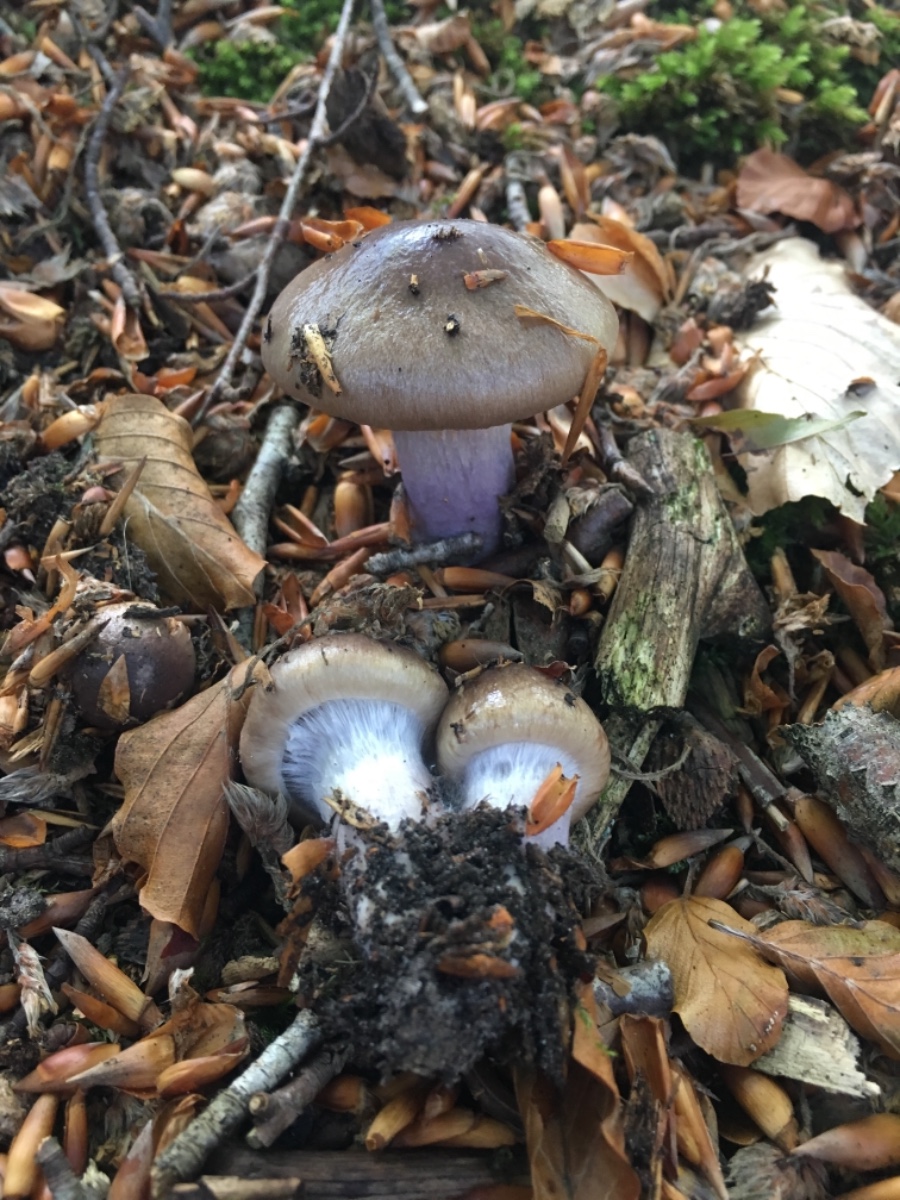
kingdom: Fungi
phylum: Basidiomycota
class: Agaricomycetes
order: Agaricales
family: Cortinariaceae
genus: Cortinarius
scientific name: Cortinarius elatior
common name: høj slørhat
